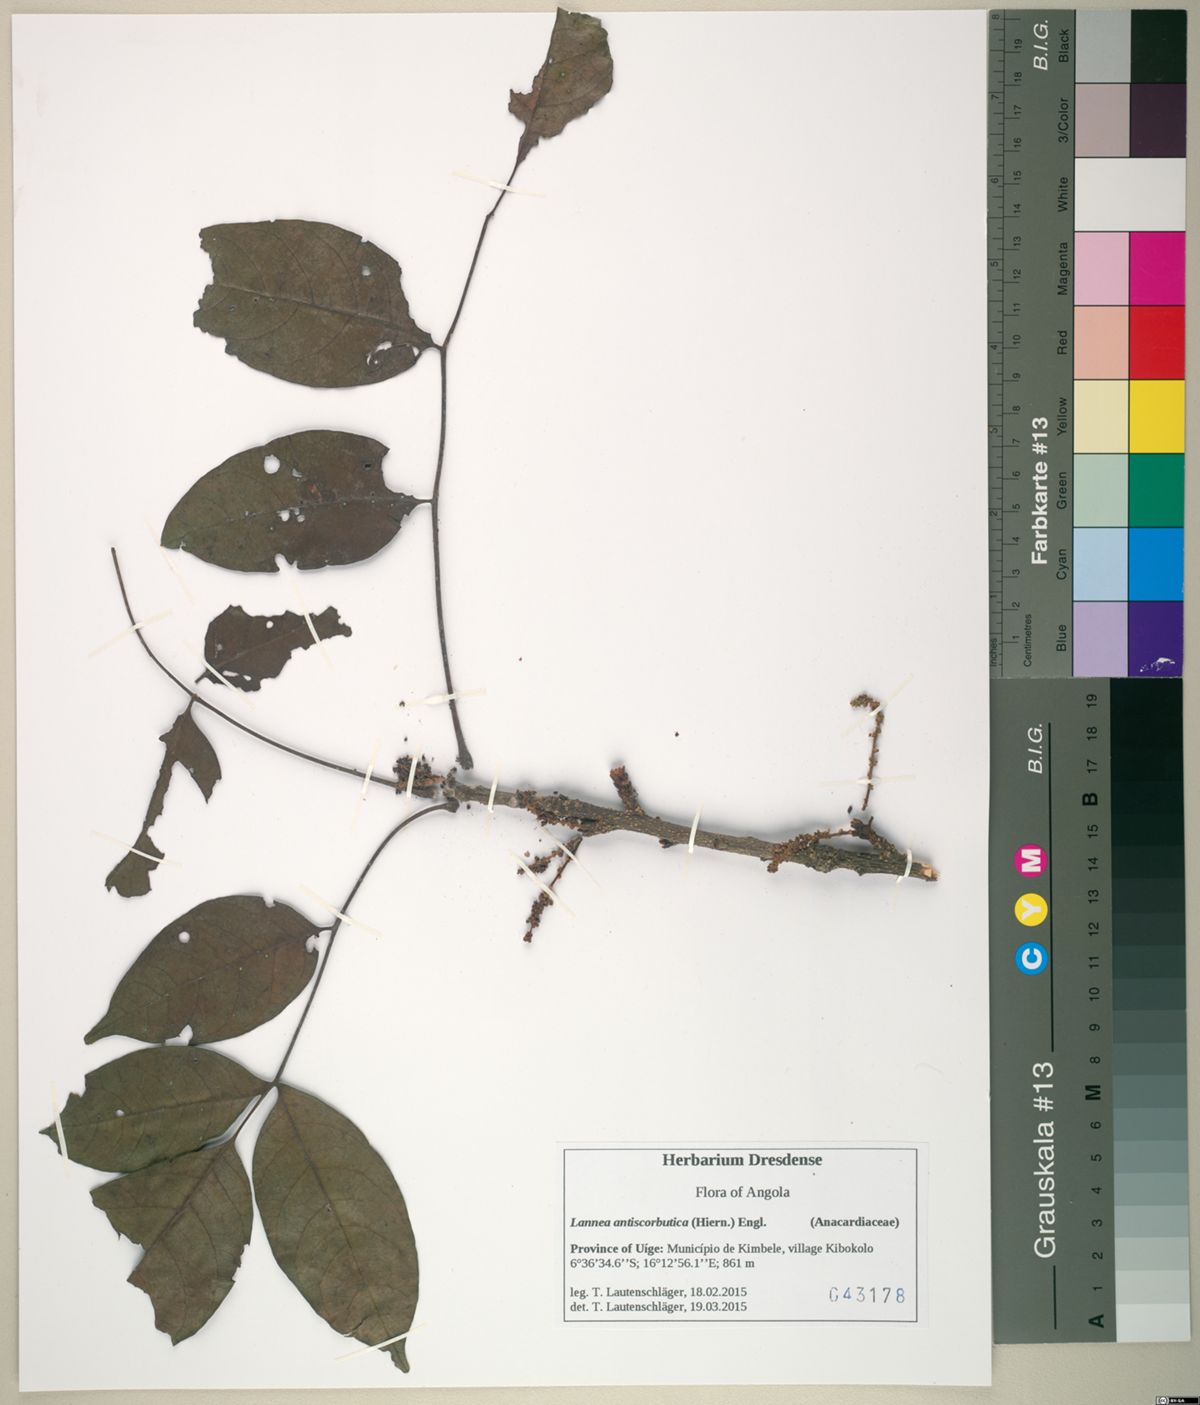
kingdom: Plantae
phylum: Tracheophyta
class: Magnoliopsida
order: Sapindales
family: Anacardiaceae
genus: Lannea
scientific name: Lannea antiscorbutica
